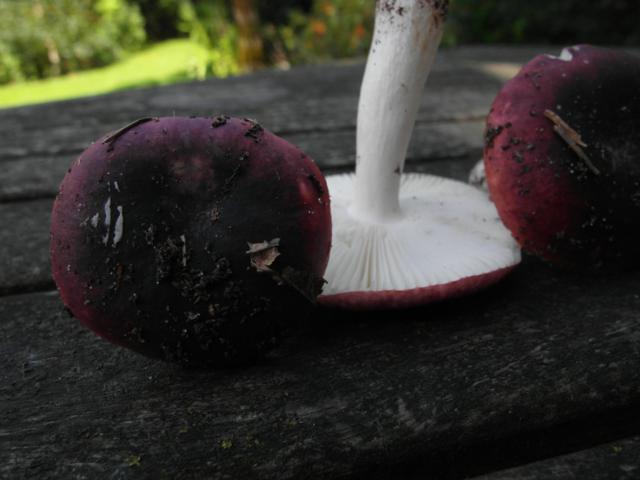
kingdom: Fungi
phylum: Basidiomycota
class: Agaricomycetes
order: Russulales
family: Russulaceae
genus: Russula
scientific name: Russula fragilis
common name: Fragile brittlegill
